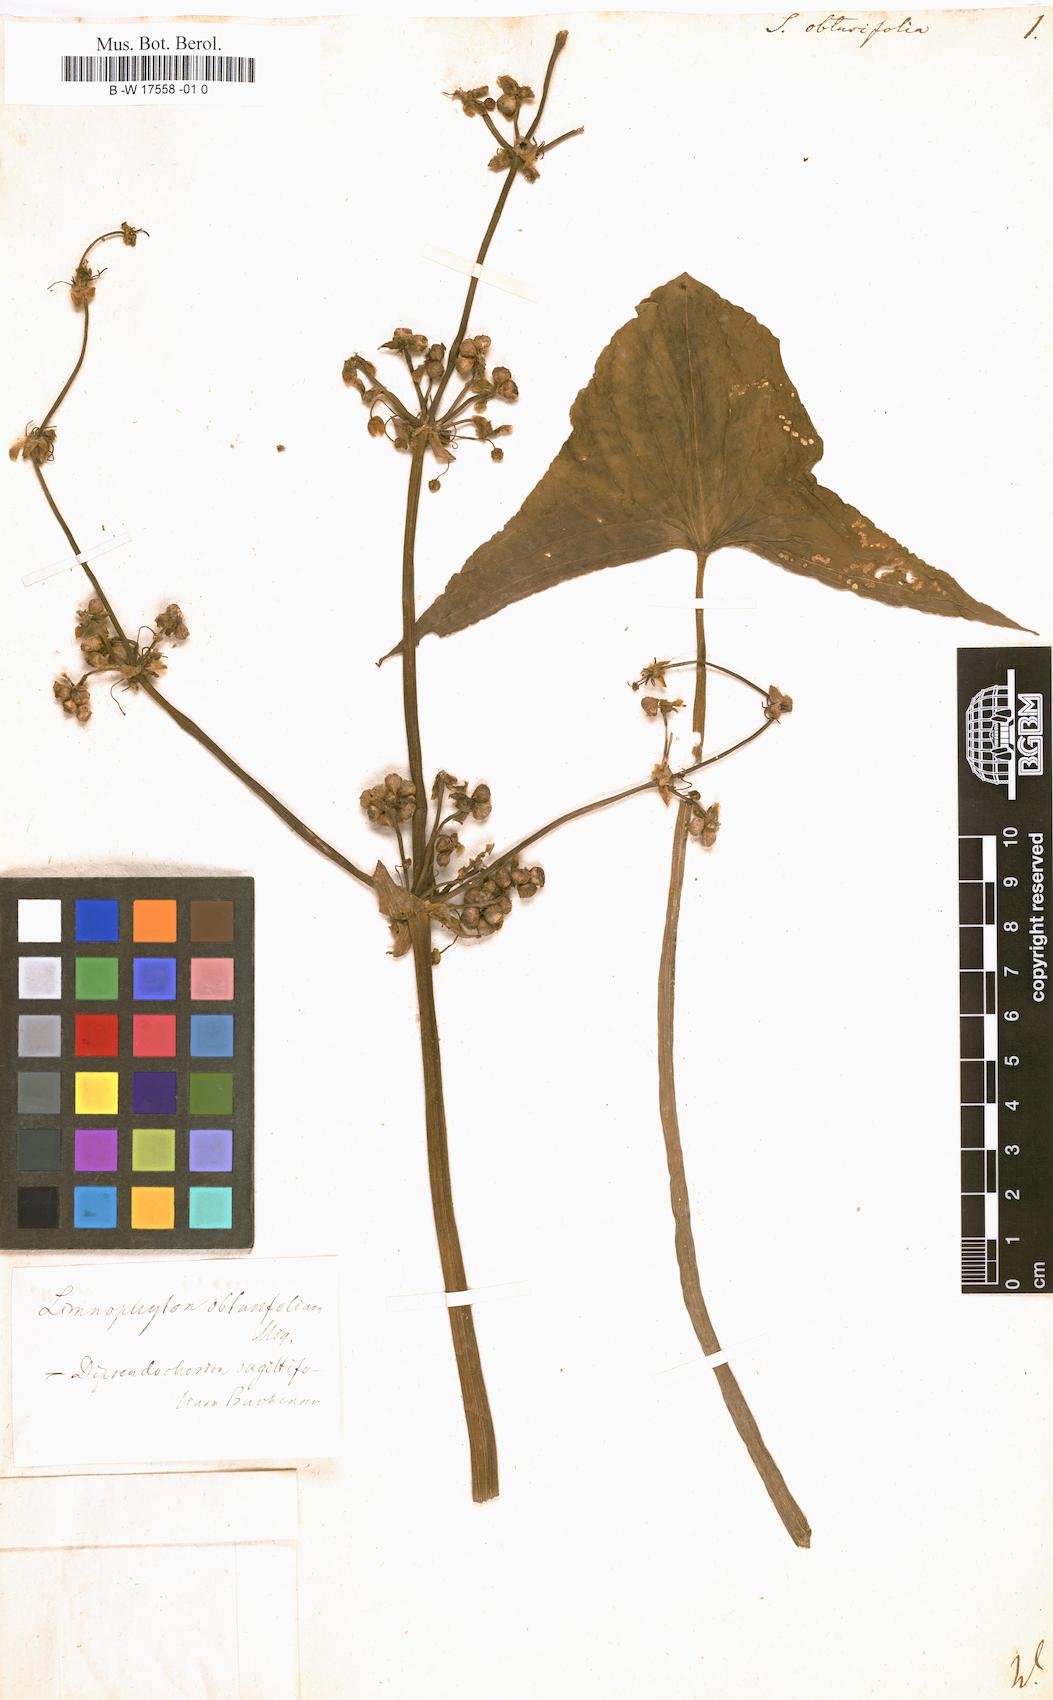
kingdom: Plantae
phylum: Tracheophyta
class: Liliopsida
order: Alismatales
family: Alismataceae
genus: Limnophyton
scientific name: Limnophyton obtusifolium
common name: Arrow head
